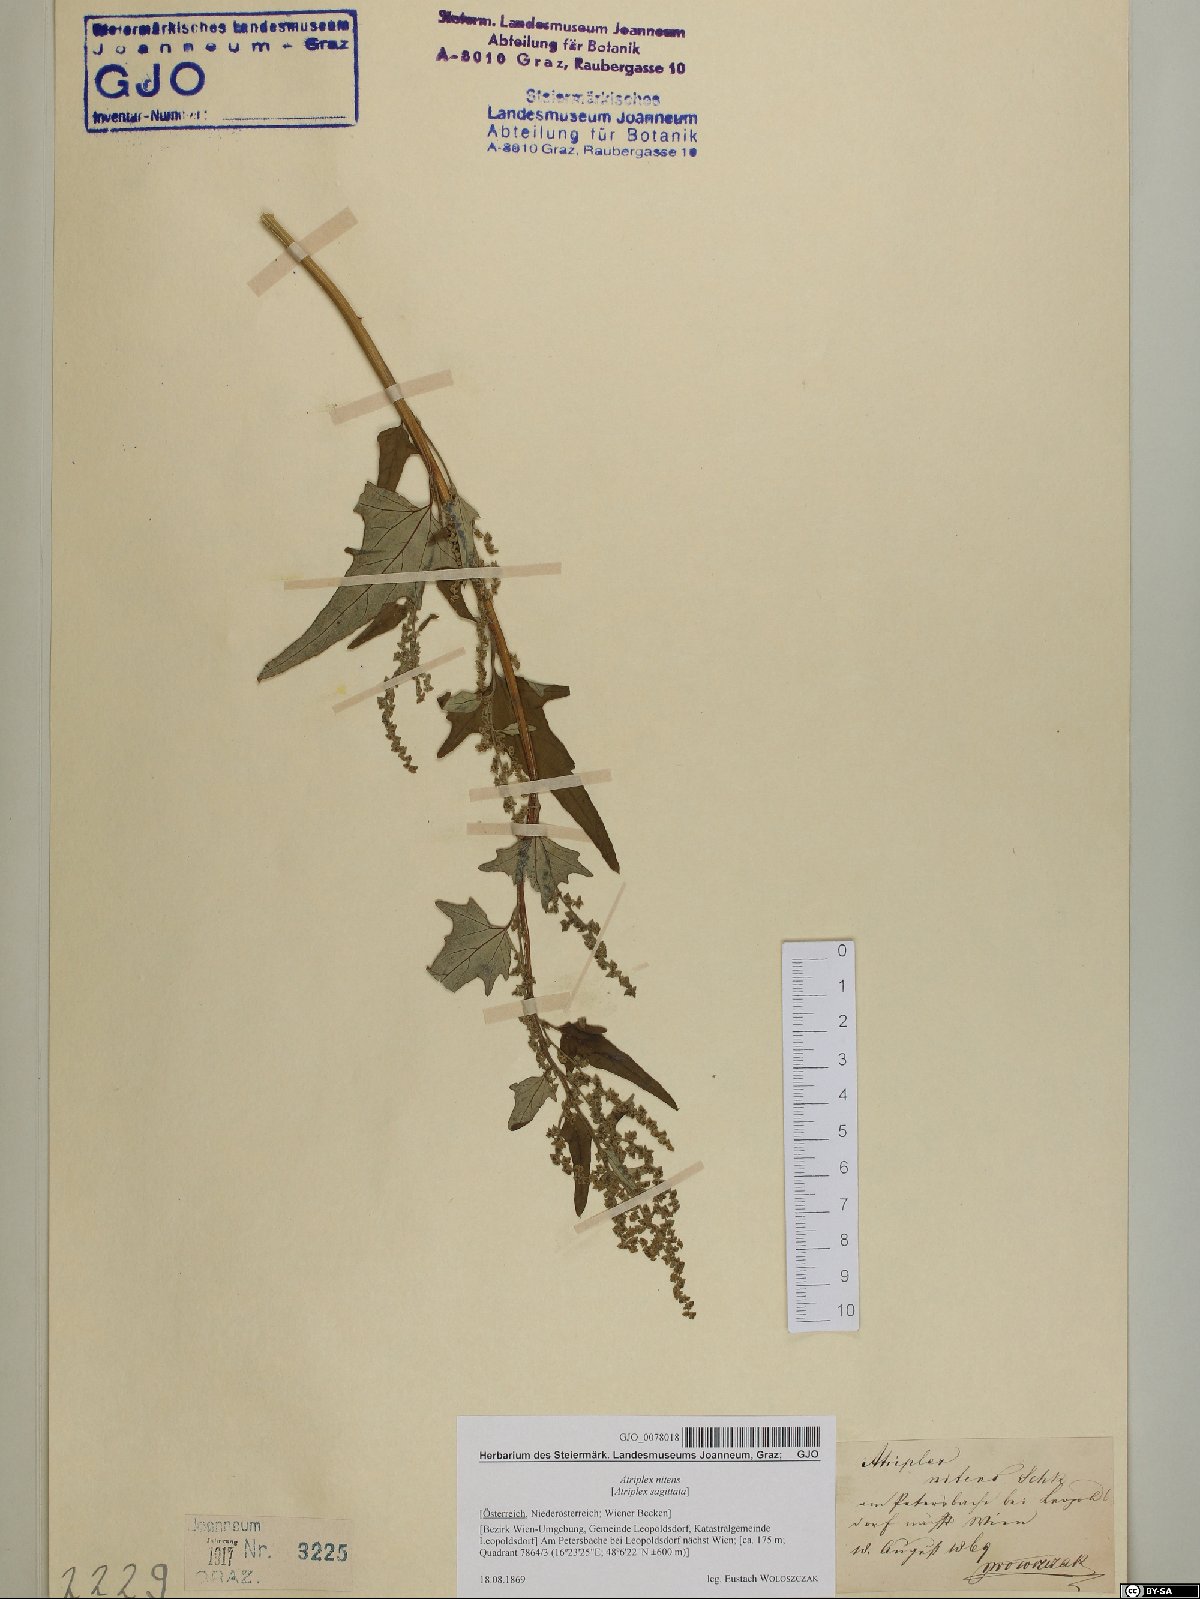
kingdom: Plantae
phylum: Tracheophyta
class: Magnoliopsida
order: Caryophyllales
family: Amaranthaceae
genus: Atriplex
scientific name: Atriplex sagittata
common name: Purple orache
